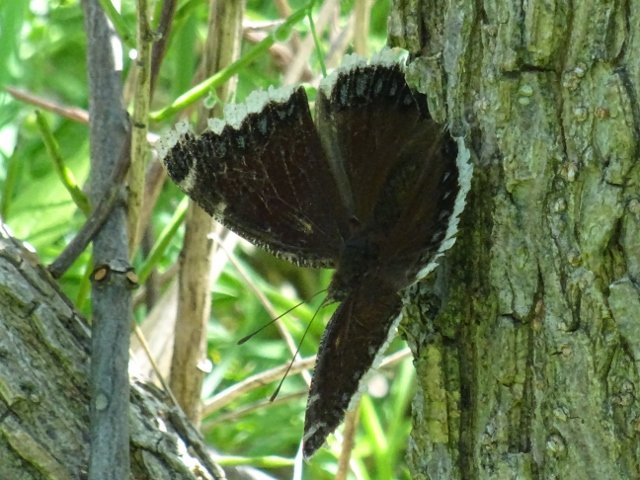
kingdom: Animalia
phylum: Arthropoda
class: Insecta
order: Lepidoptera
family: Nymphalidae
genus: Nymphalis
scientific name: Nymphalis antiopa
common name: Mourning Cloak
